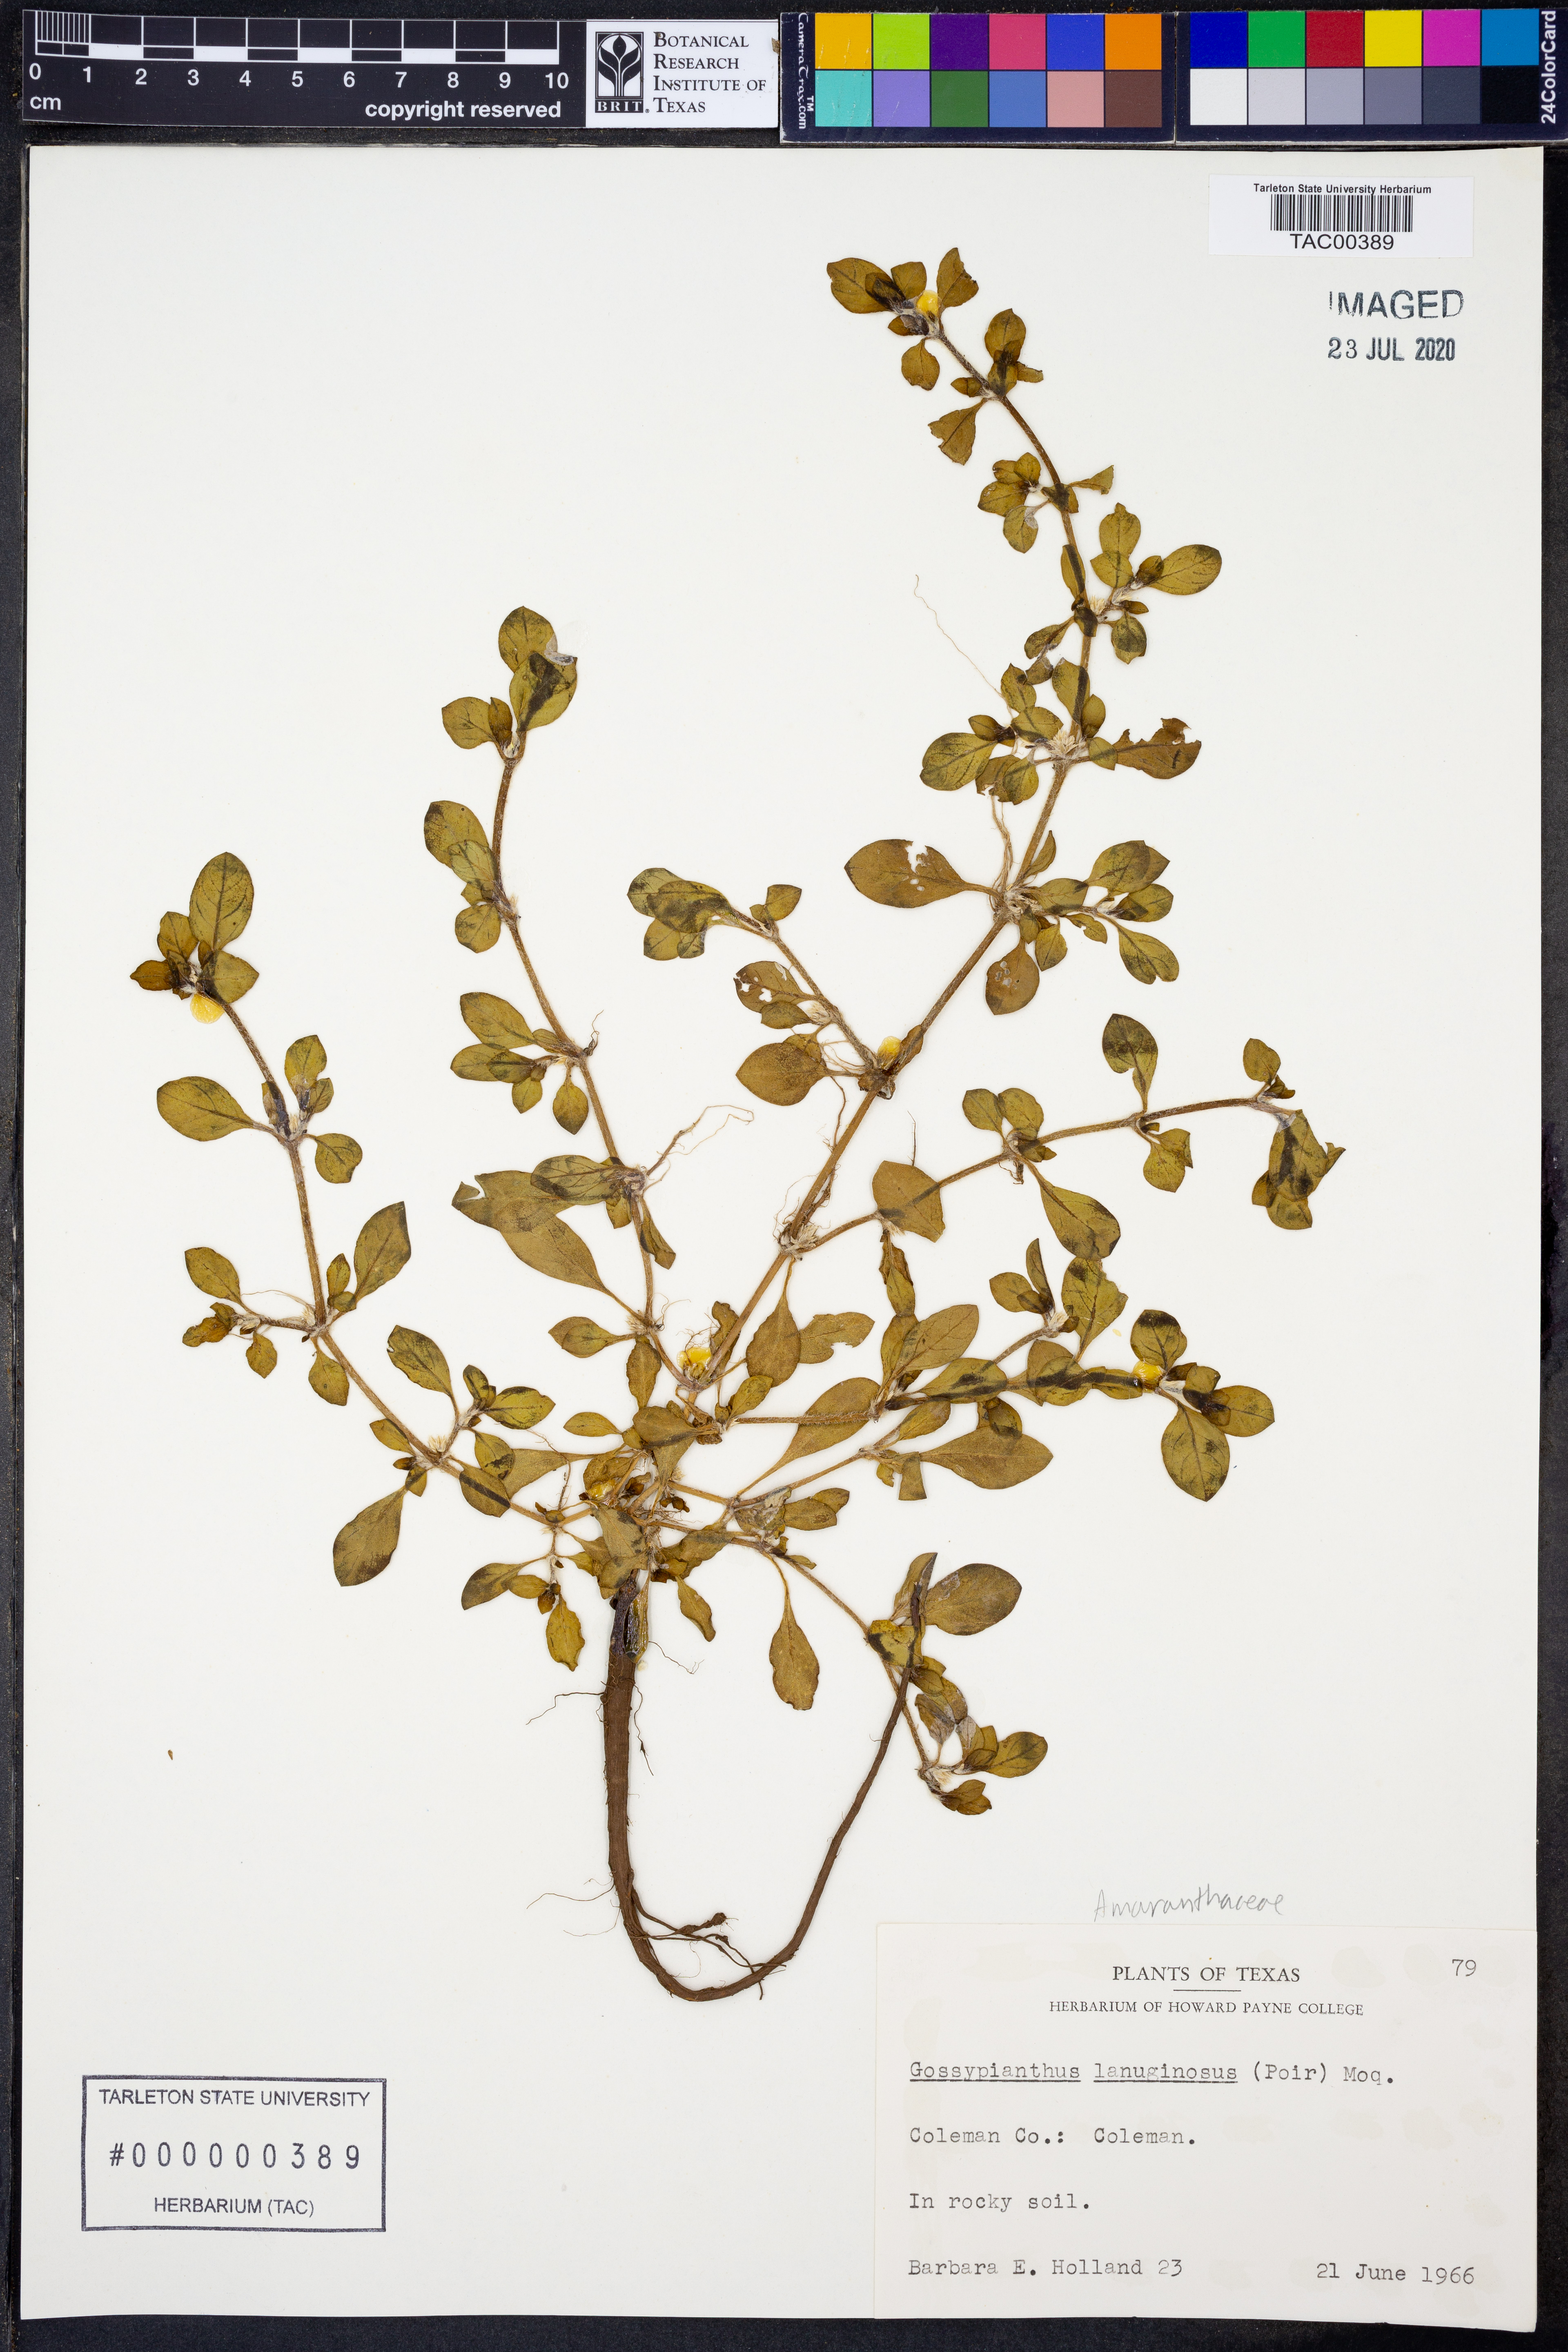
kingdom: Plantae
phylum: Tracheophyta
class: Magnoliopsida
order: Caryophyllales
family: Amaranthaceae
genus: Gomphrena
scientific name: Gomphrena lanuparonychioides
